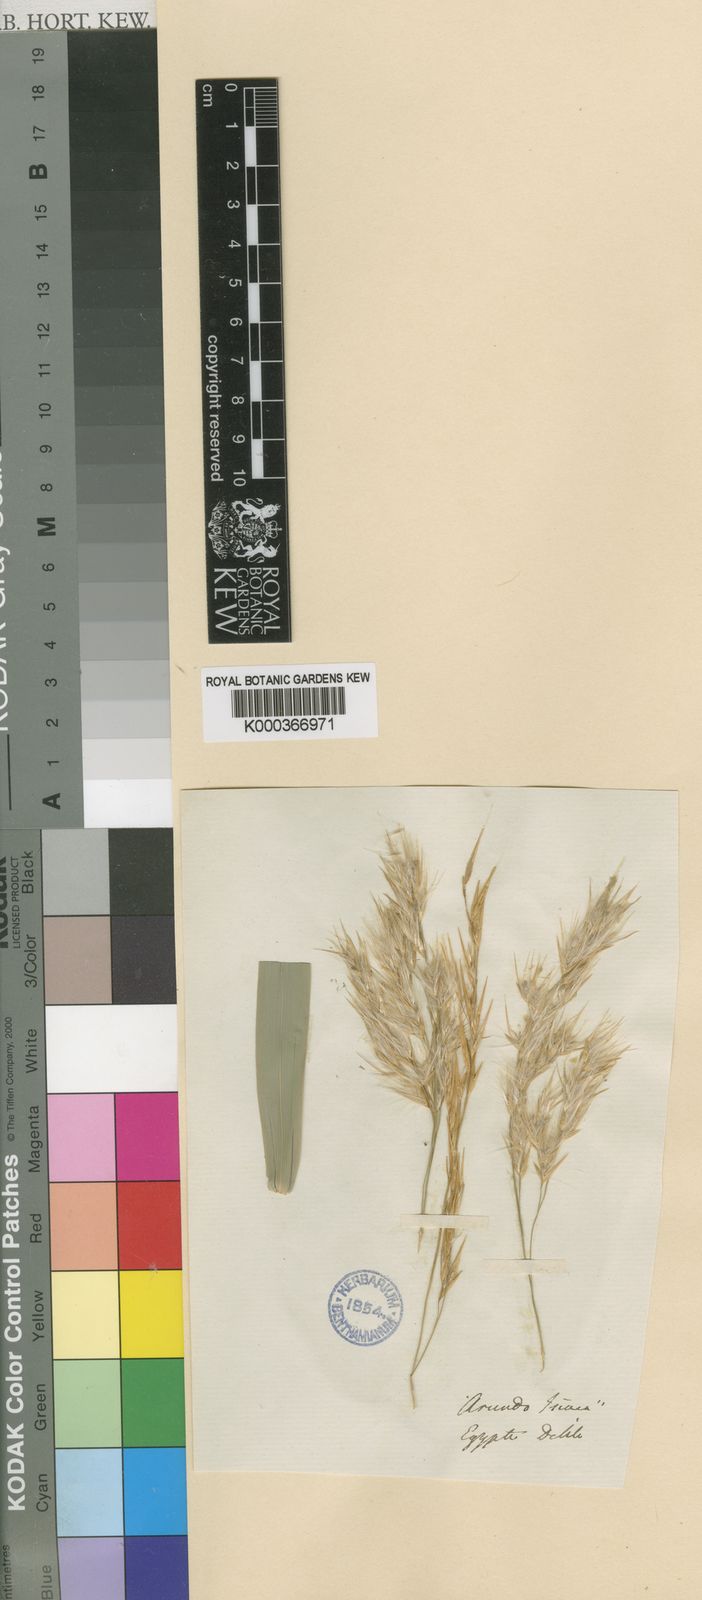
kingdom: Plantae
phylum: Tracheophyta
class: Liliopsida
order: Poales
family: Poaceae
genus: Phragmites
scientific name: Phragmites australis
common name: Common reed
